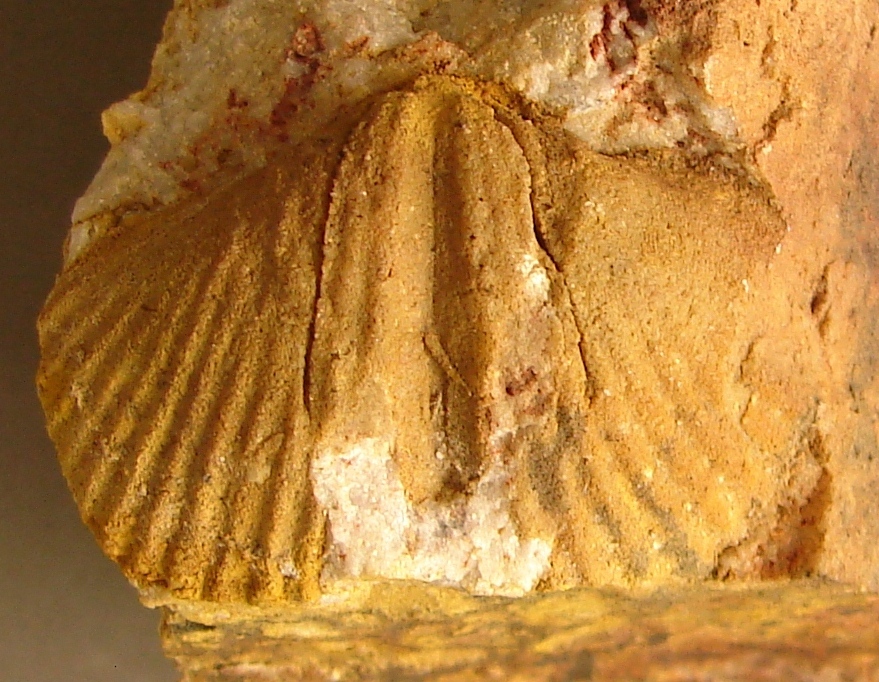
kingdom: Animalia
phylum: Brachiopoda
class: Rhynchonellata
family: Delthyrididae
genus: Brachyspirifer
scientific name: Brachyspirifer
